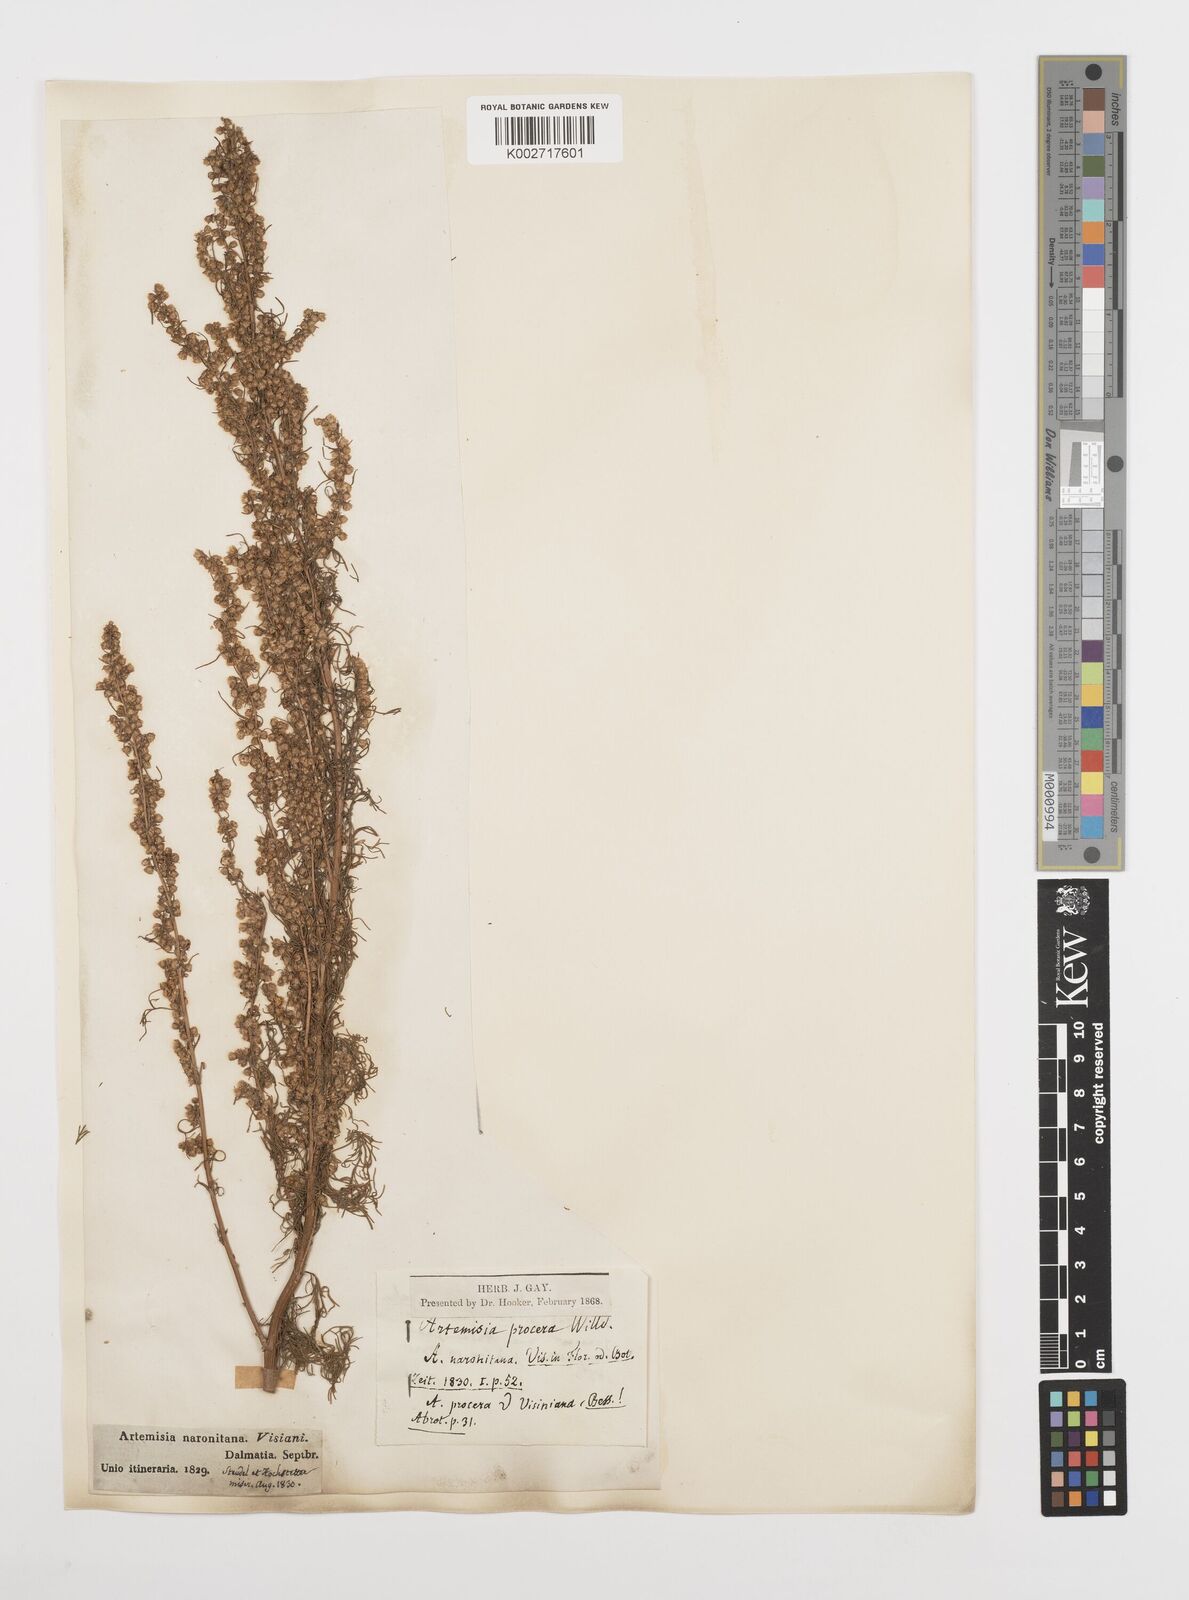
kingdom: Plantae
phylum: Tracheophyta
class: Magnoliopsida
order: Asterales
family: Asteraceae
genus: Artemisia
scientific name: Artemisia campestris
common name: Field wormwood
